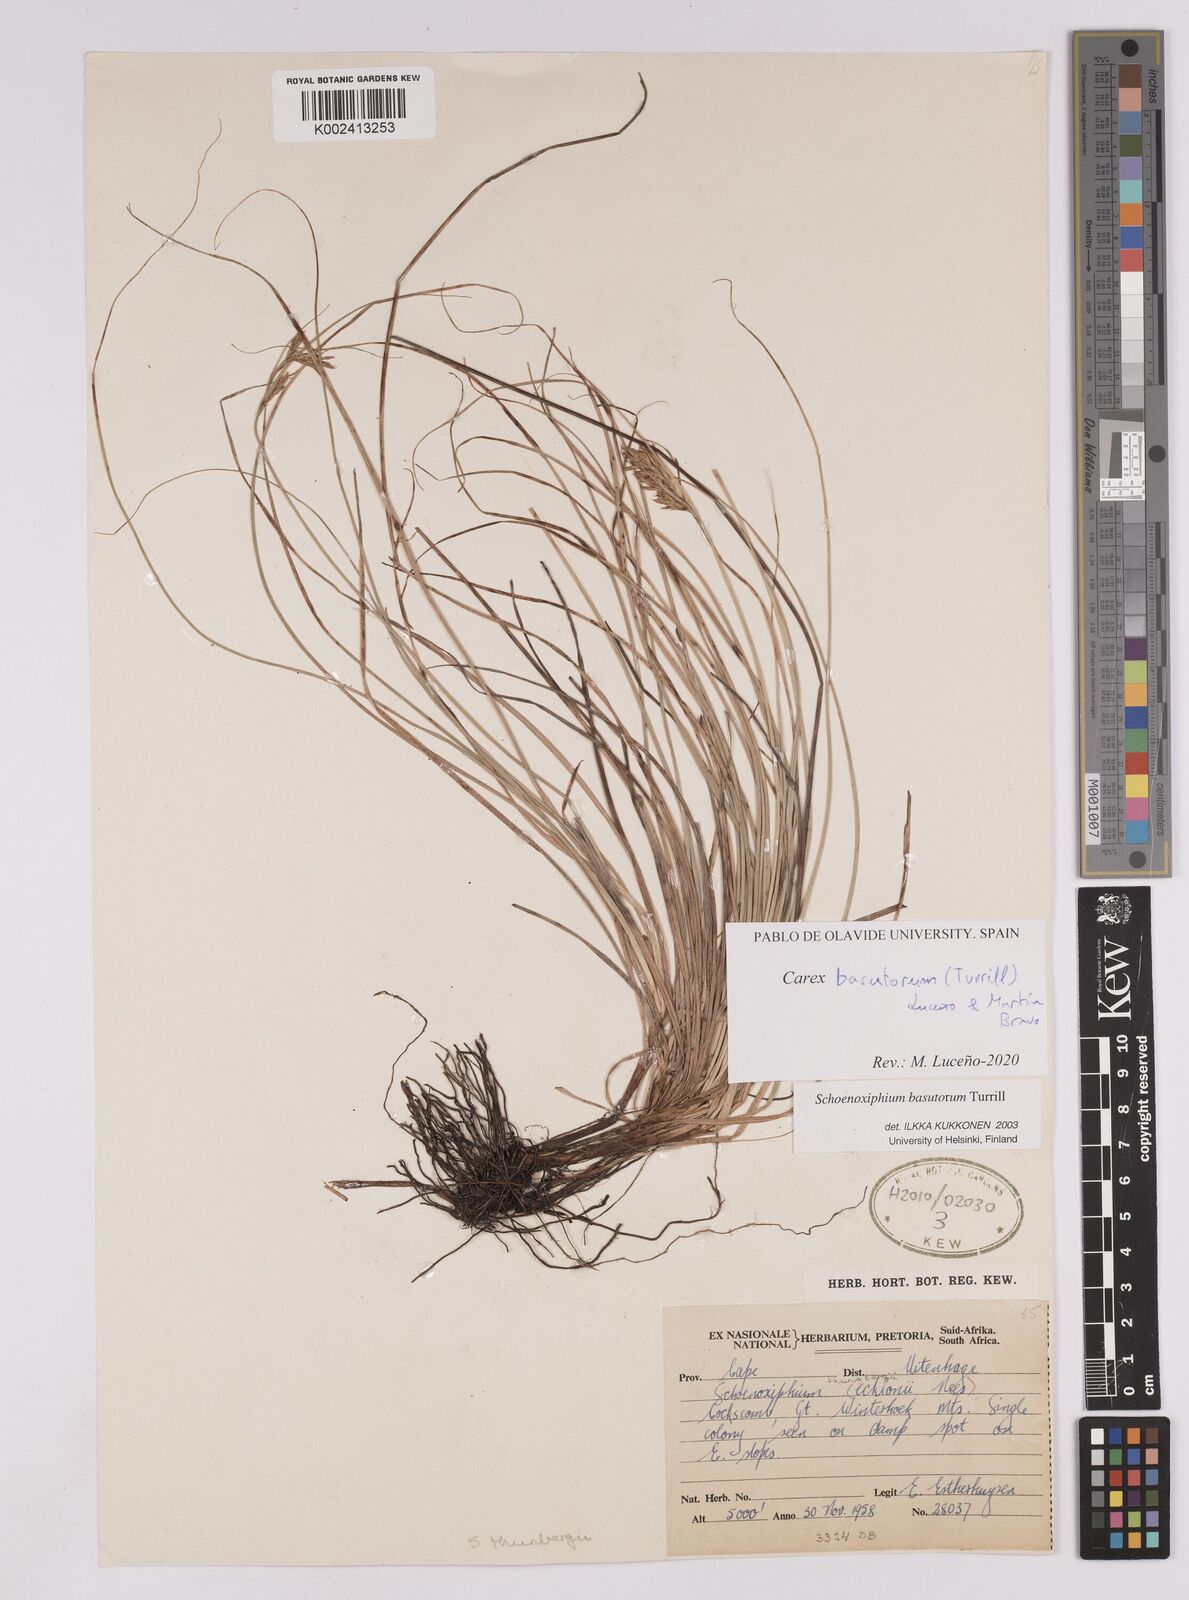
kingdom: Plantae
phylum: Tracheophyta
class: Liliopsida
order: Poales
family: Cyperaceae
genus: Carex
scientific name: Carex basutorum
